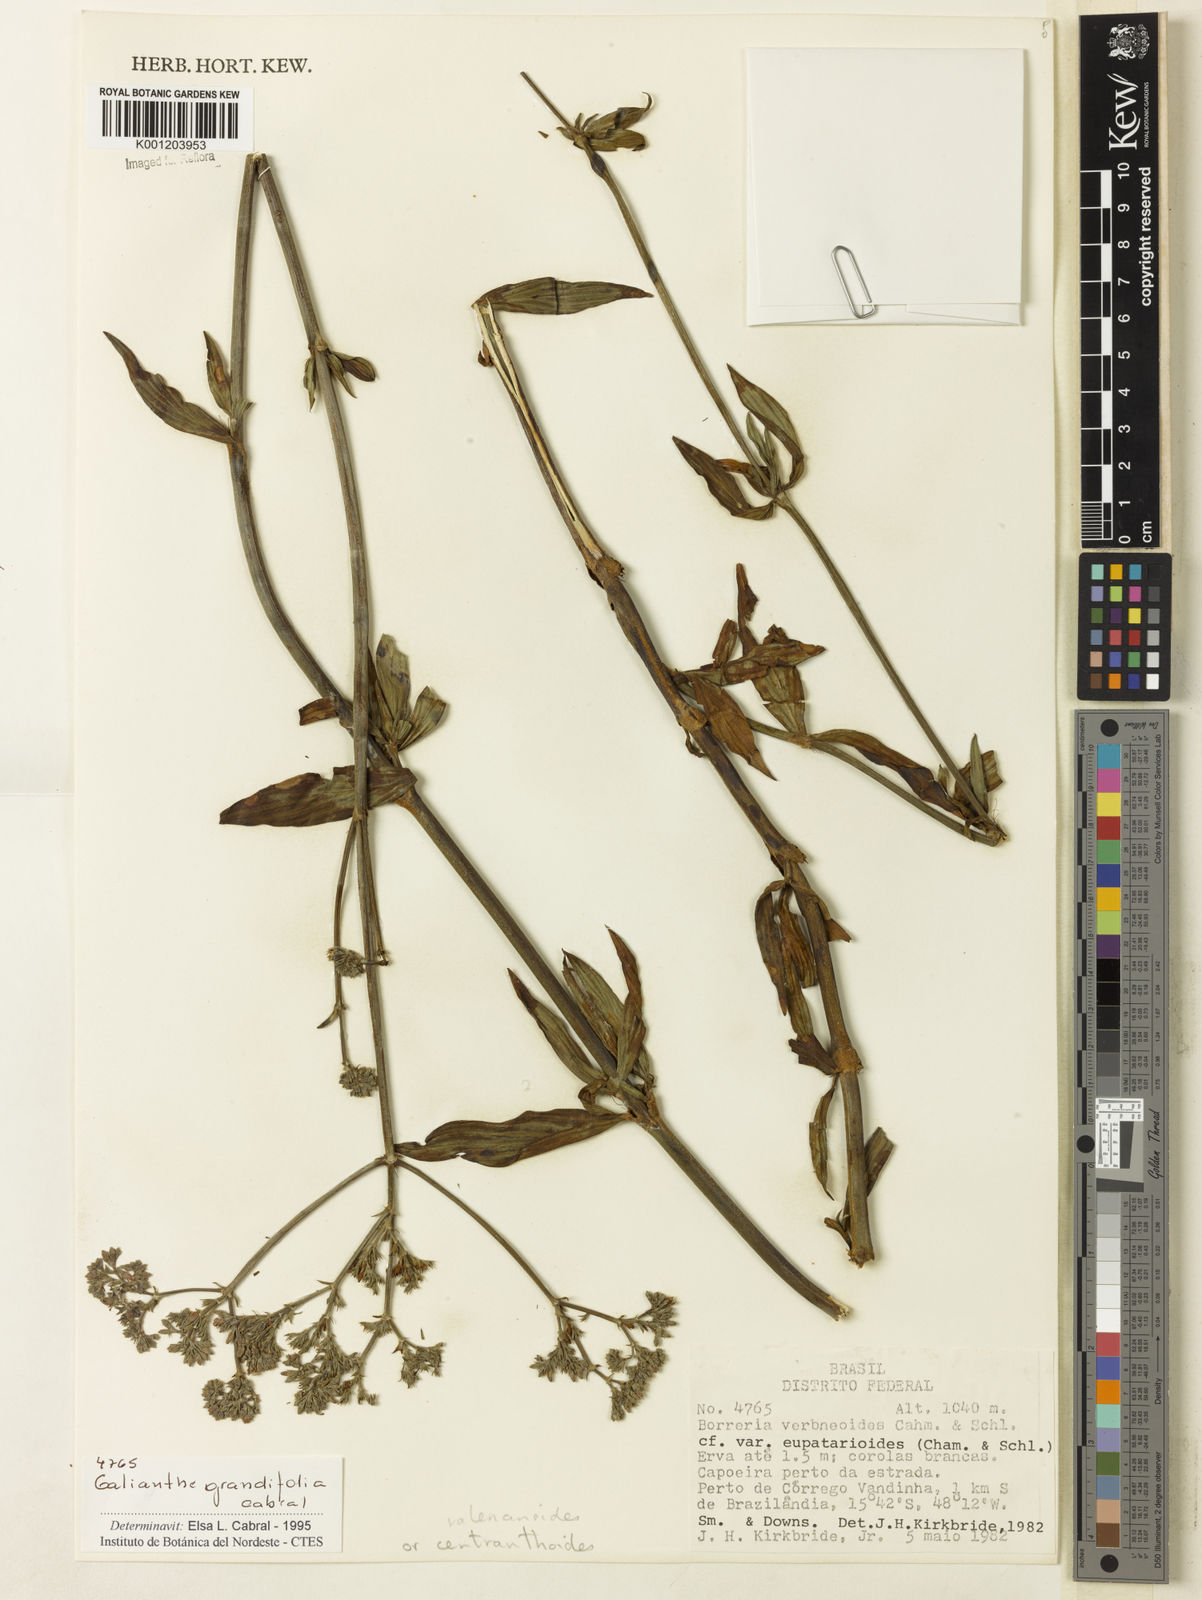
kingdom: Plantae
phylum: Tracheophyta
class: Magnoliopsida
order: Gentianales
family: Rubiaceae
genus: Galianthe
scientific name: Galianthe grandifolia
